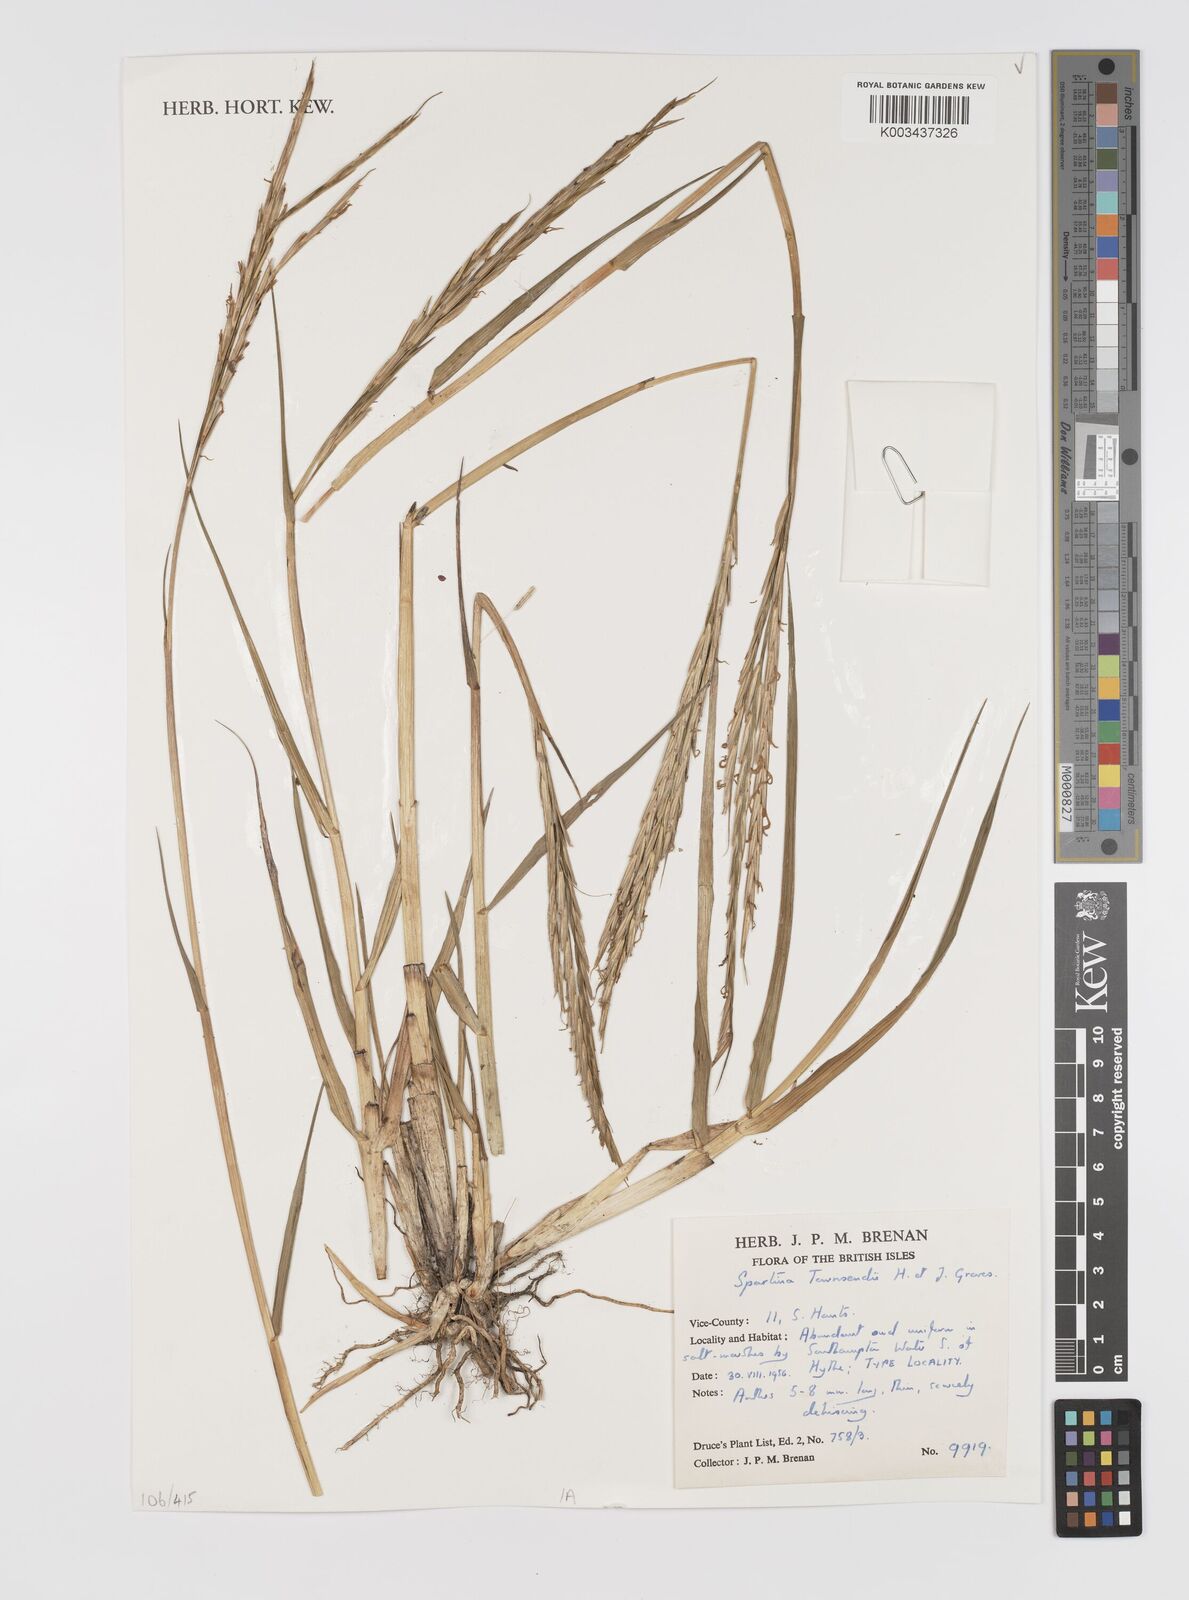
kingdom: Plantae
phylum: Tracheophyta
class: Liliopsida
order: Poales
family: Poaceae
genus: Sporobolus
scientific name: Sporobolus townsendii
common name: Townsend's cordgrass
